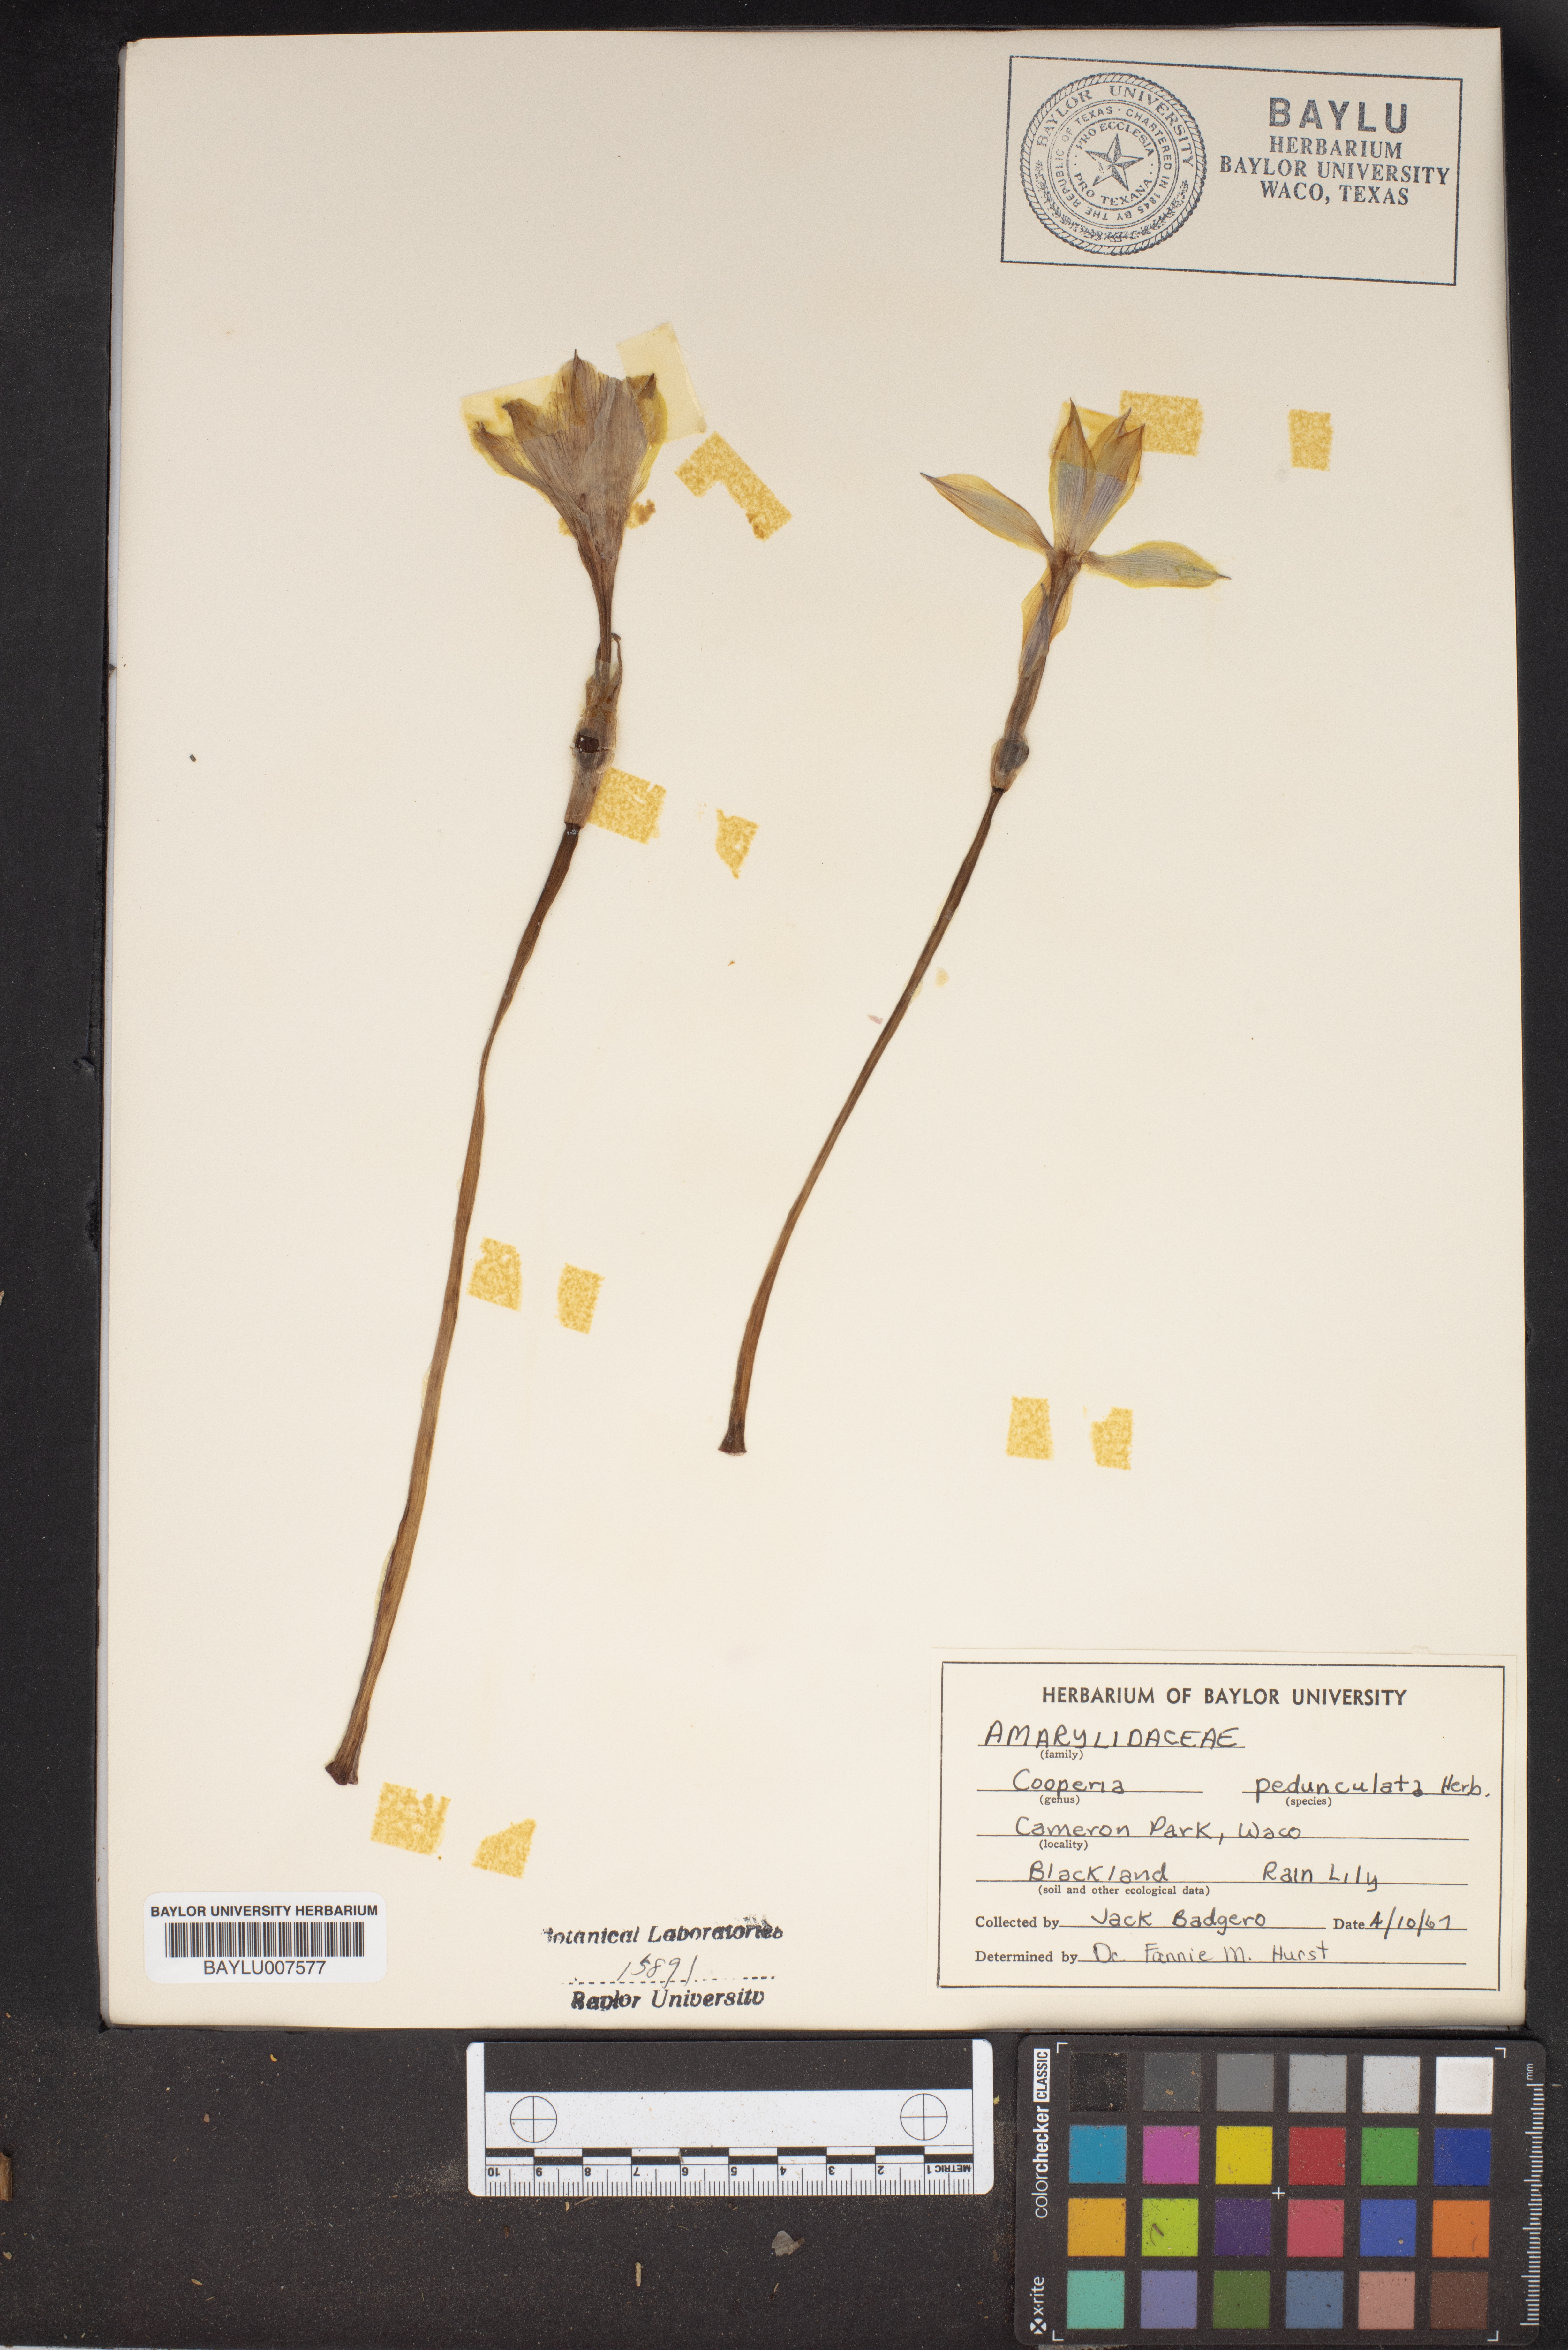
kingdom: Plantae
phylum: Tracheophyta
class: Liliopsida
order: Asparagales
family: Amaryllidaceae
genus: Zephyranthes
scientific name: Zephyranthes drummondii
